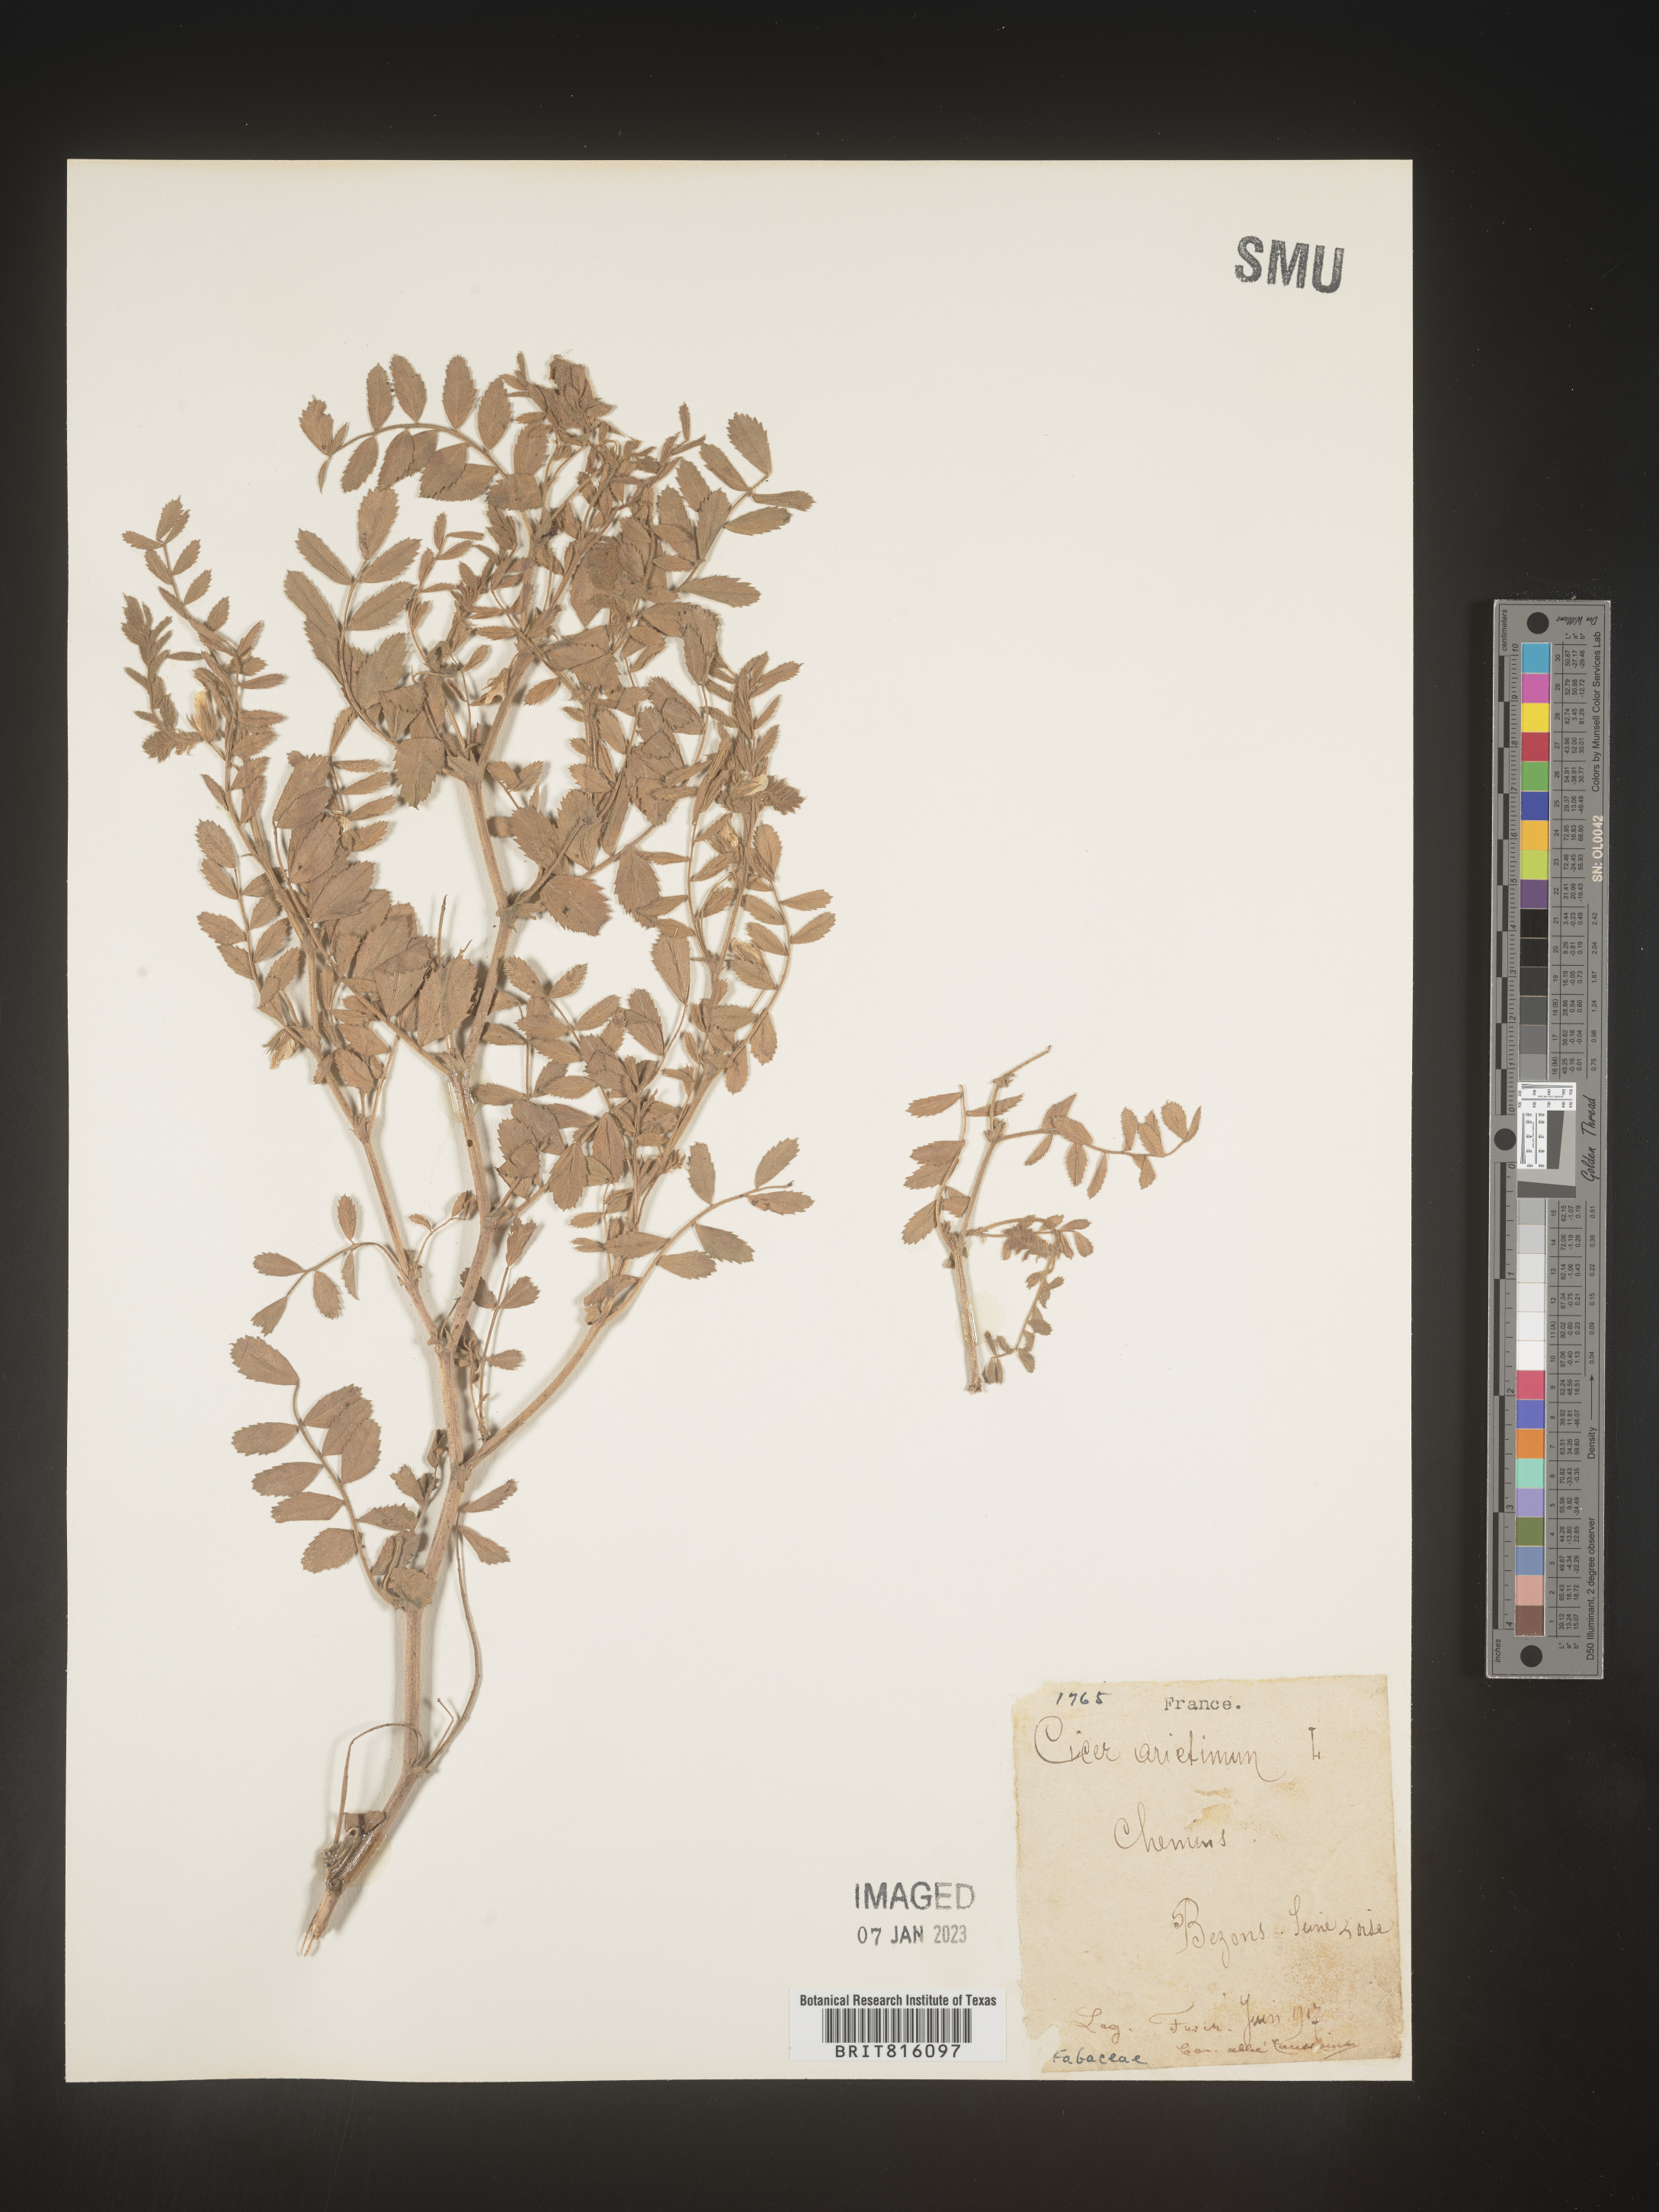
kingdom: Plantae
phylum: Tracheophyta
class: Magnoliopsida
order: Fabales
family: Fabaceae
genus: Cicer
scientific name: Cicer
